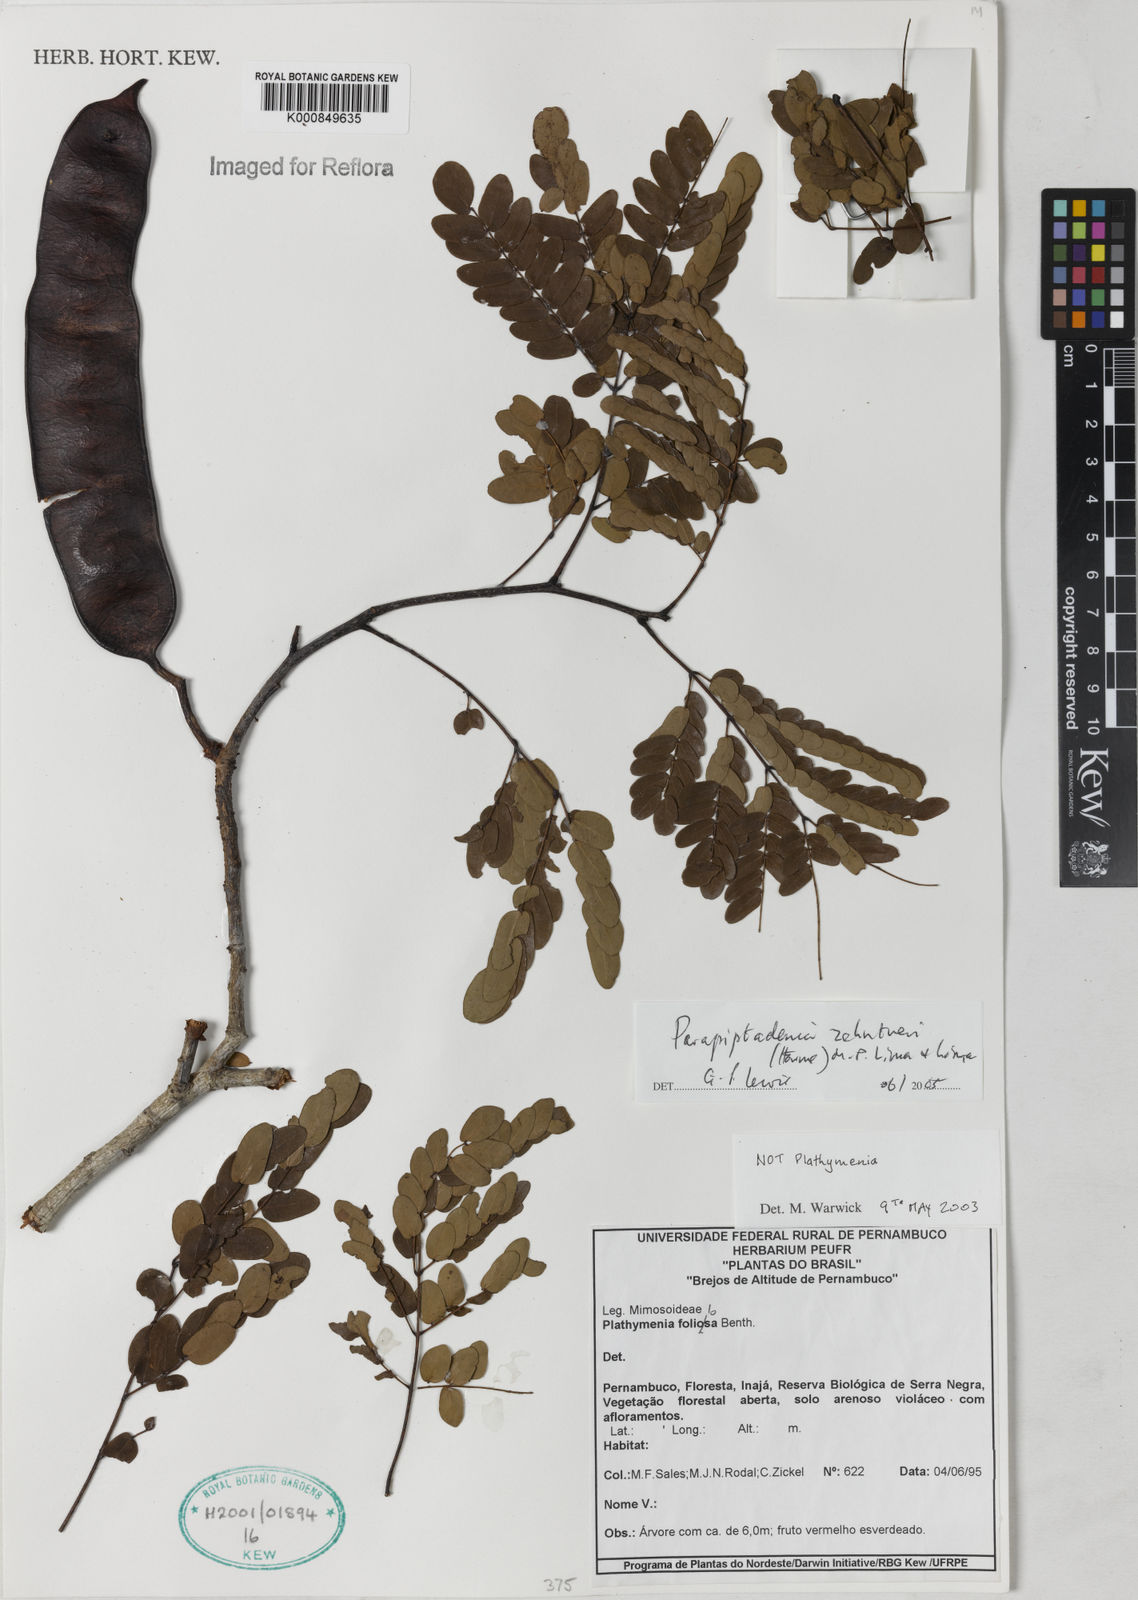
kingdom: Plantae
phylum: Tracheophyta
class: Magnoliopsida
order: Fabales
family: Fabaceae
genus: Parapiptadenia
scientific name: Parapiptadenia zehntneri
